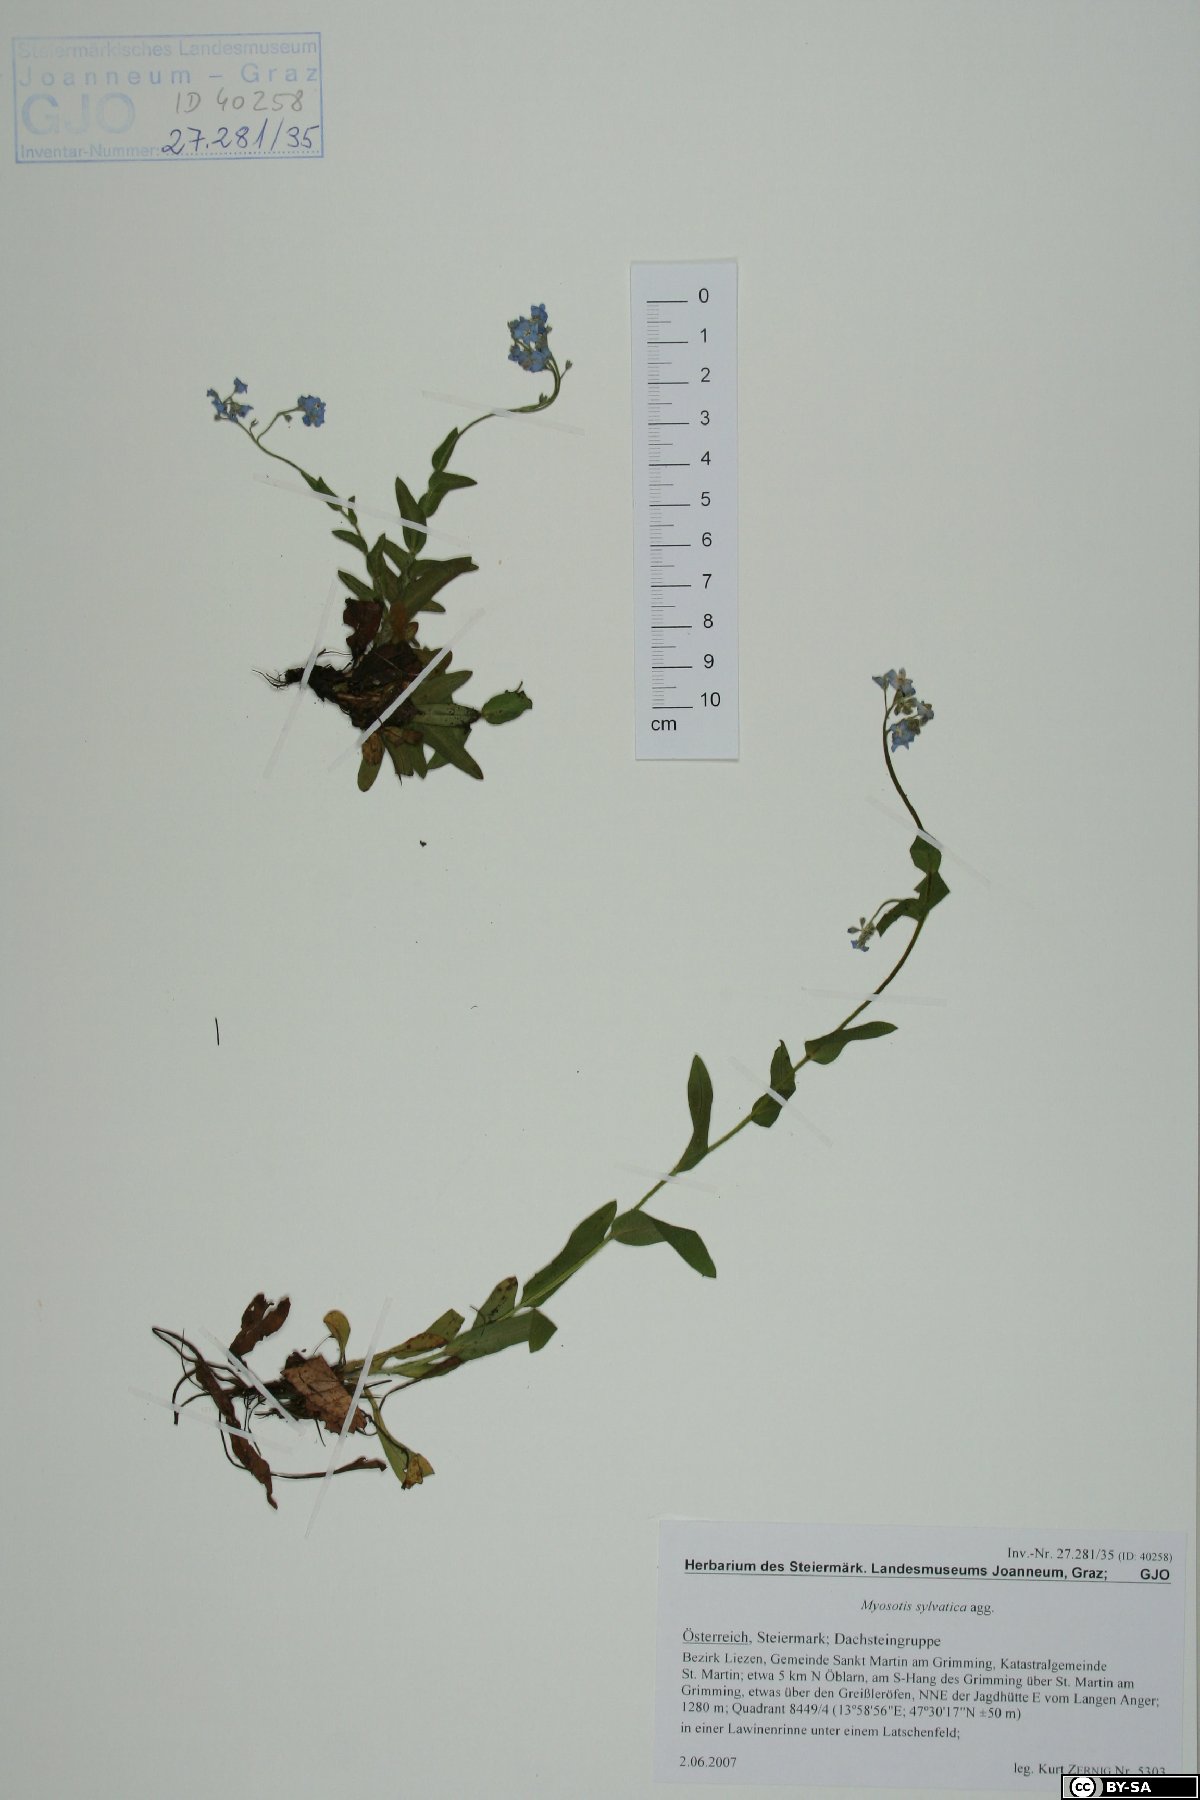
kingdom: Plantae
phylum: Tracheophyta
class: Magnoliopsida
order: Boraginales
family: Boraginaceae
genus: Myosotis
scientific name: Myosotis sylvatica
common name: Wood forget-me-not
